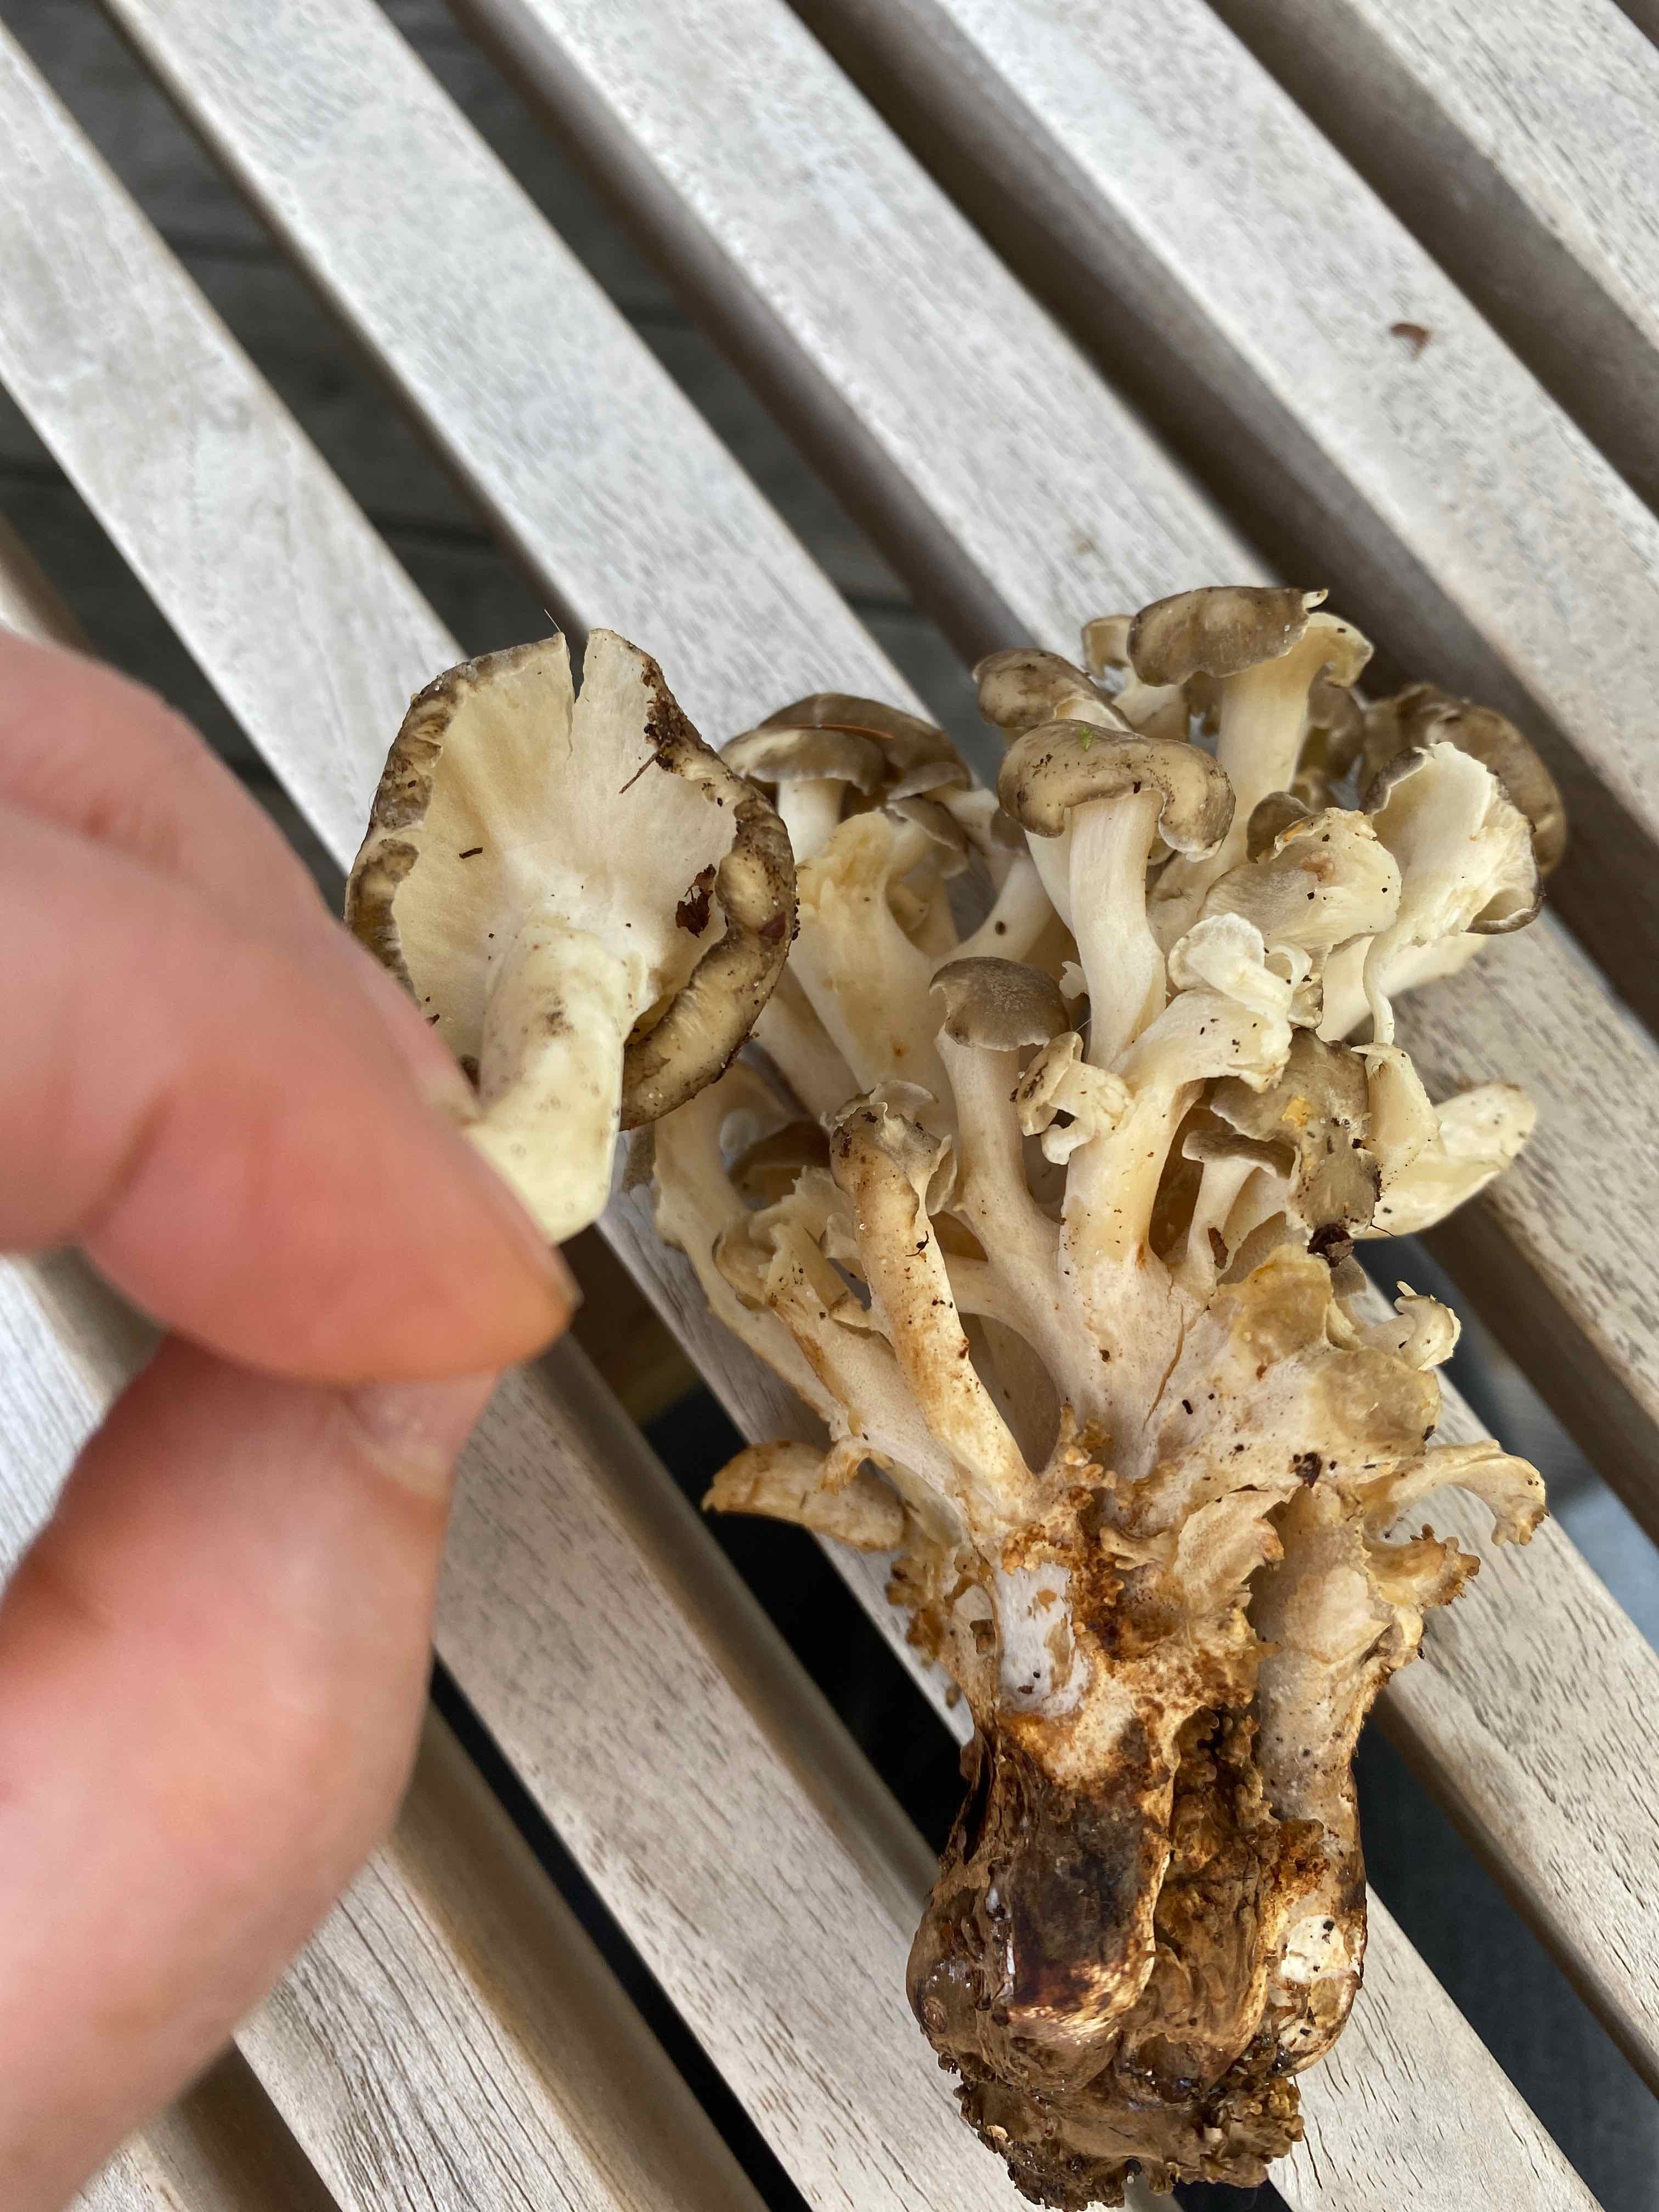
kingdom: Fungi
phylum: Basidiomycota
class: Agaricomycetes
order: Polyporales
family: Polyporaceae
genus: Polyporus
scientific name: Polyporus umbellatus
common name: skærmformet stilkporesvamp
